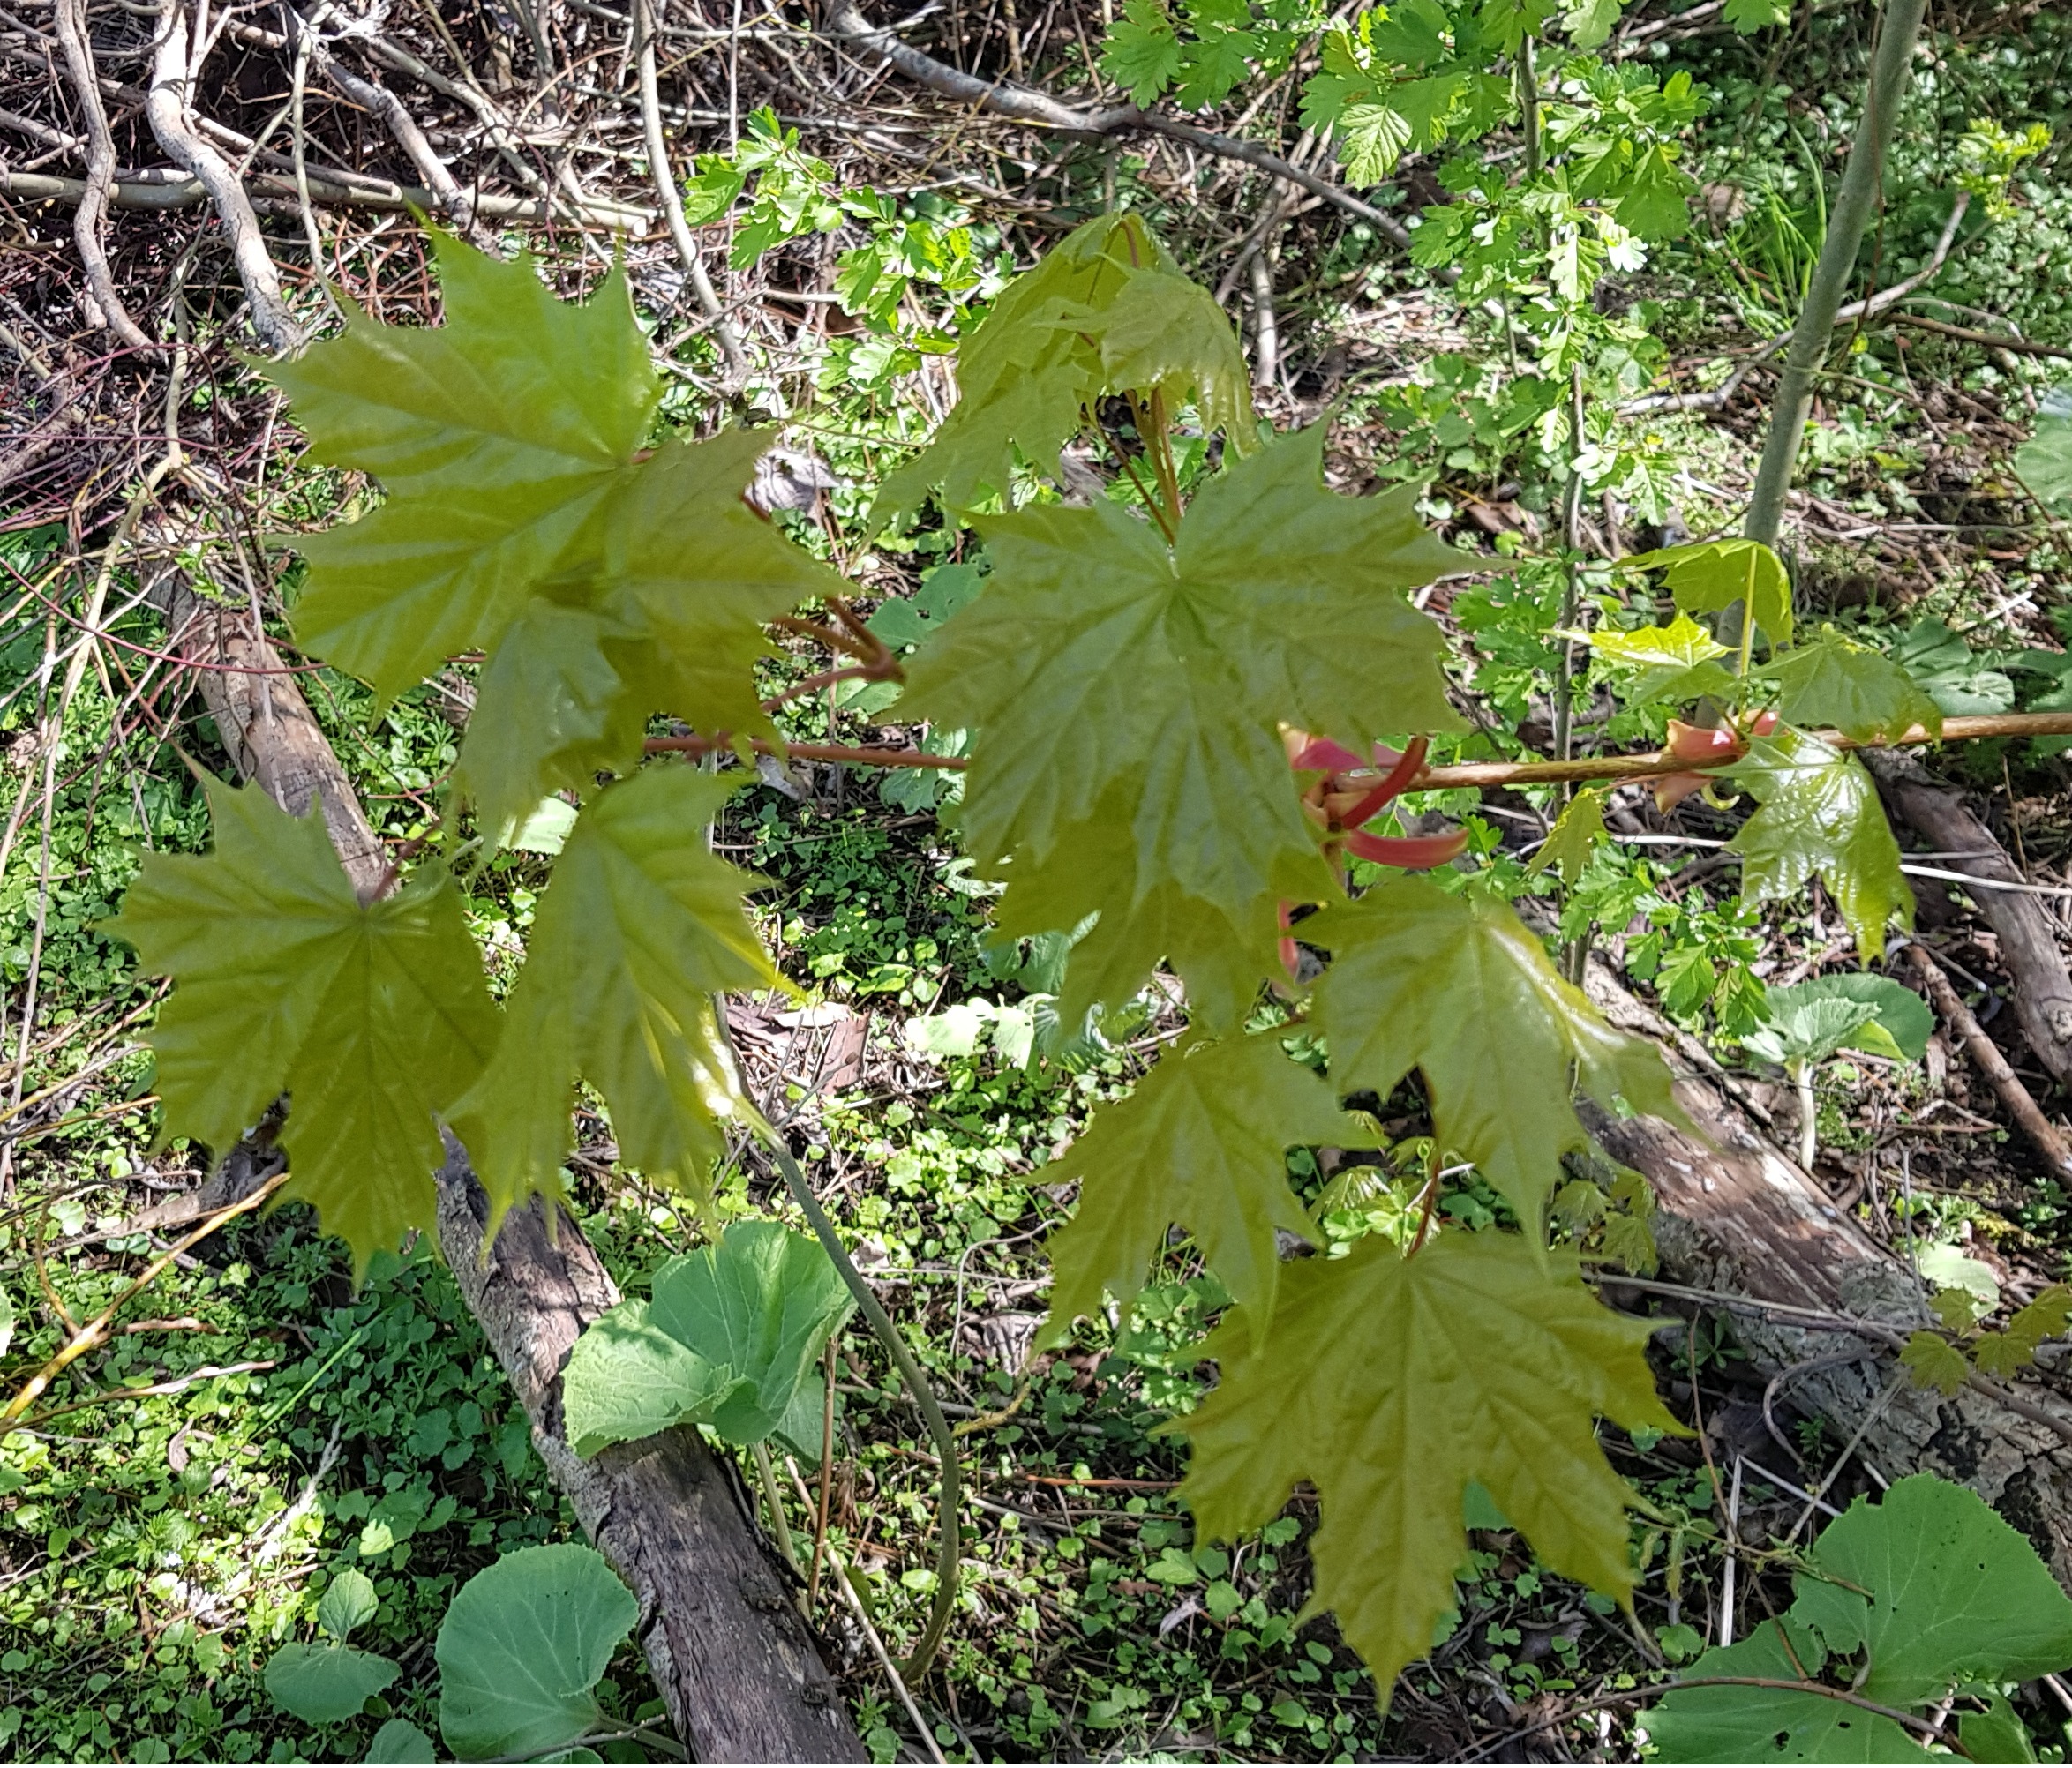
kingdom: Plantae
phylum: Tracheophyta
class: Magnoliopsida
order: Sapindales
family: Sapindaceae
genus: Acer
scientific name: Acer platanoides
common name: Spids-løn
